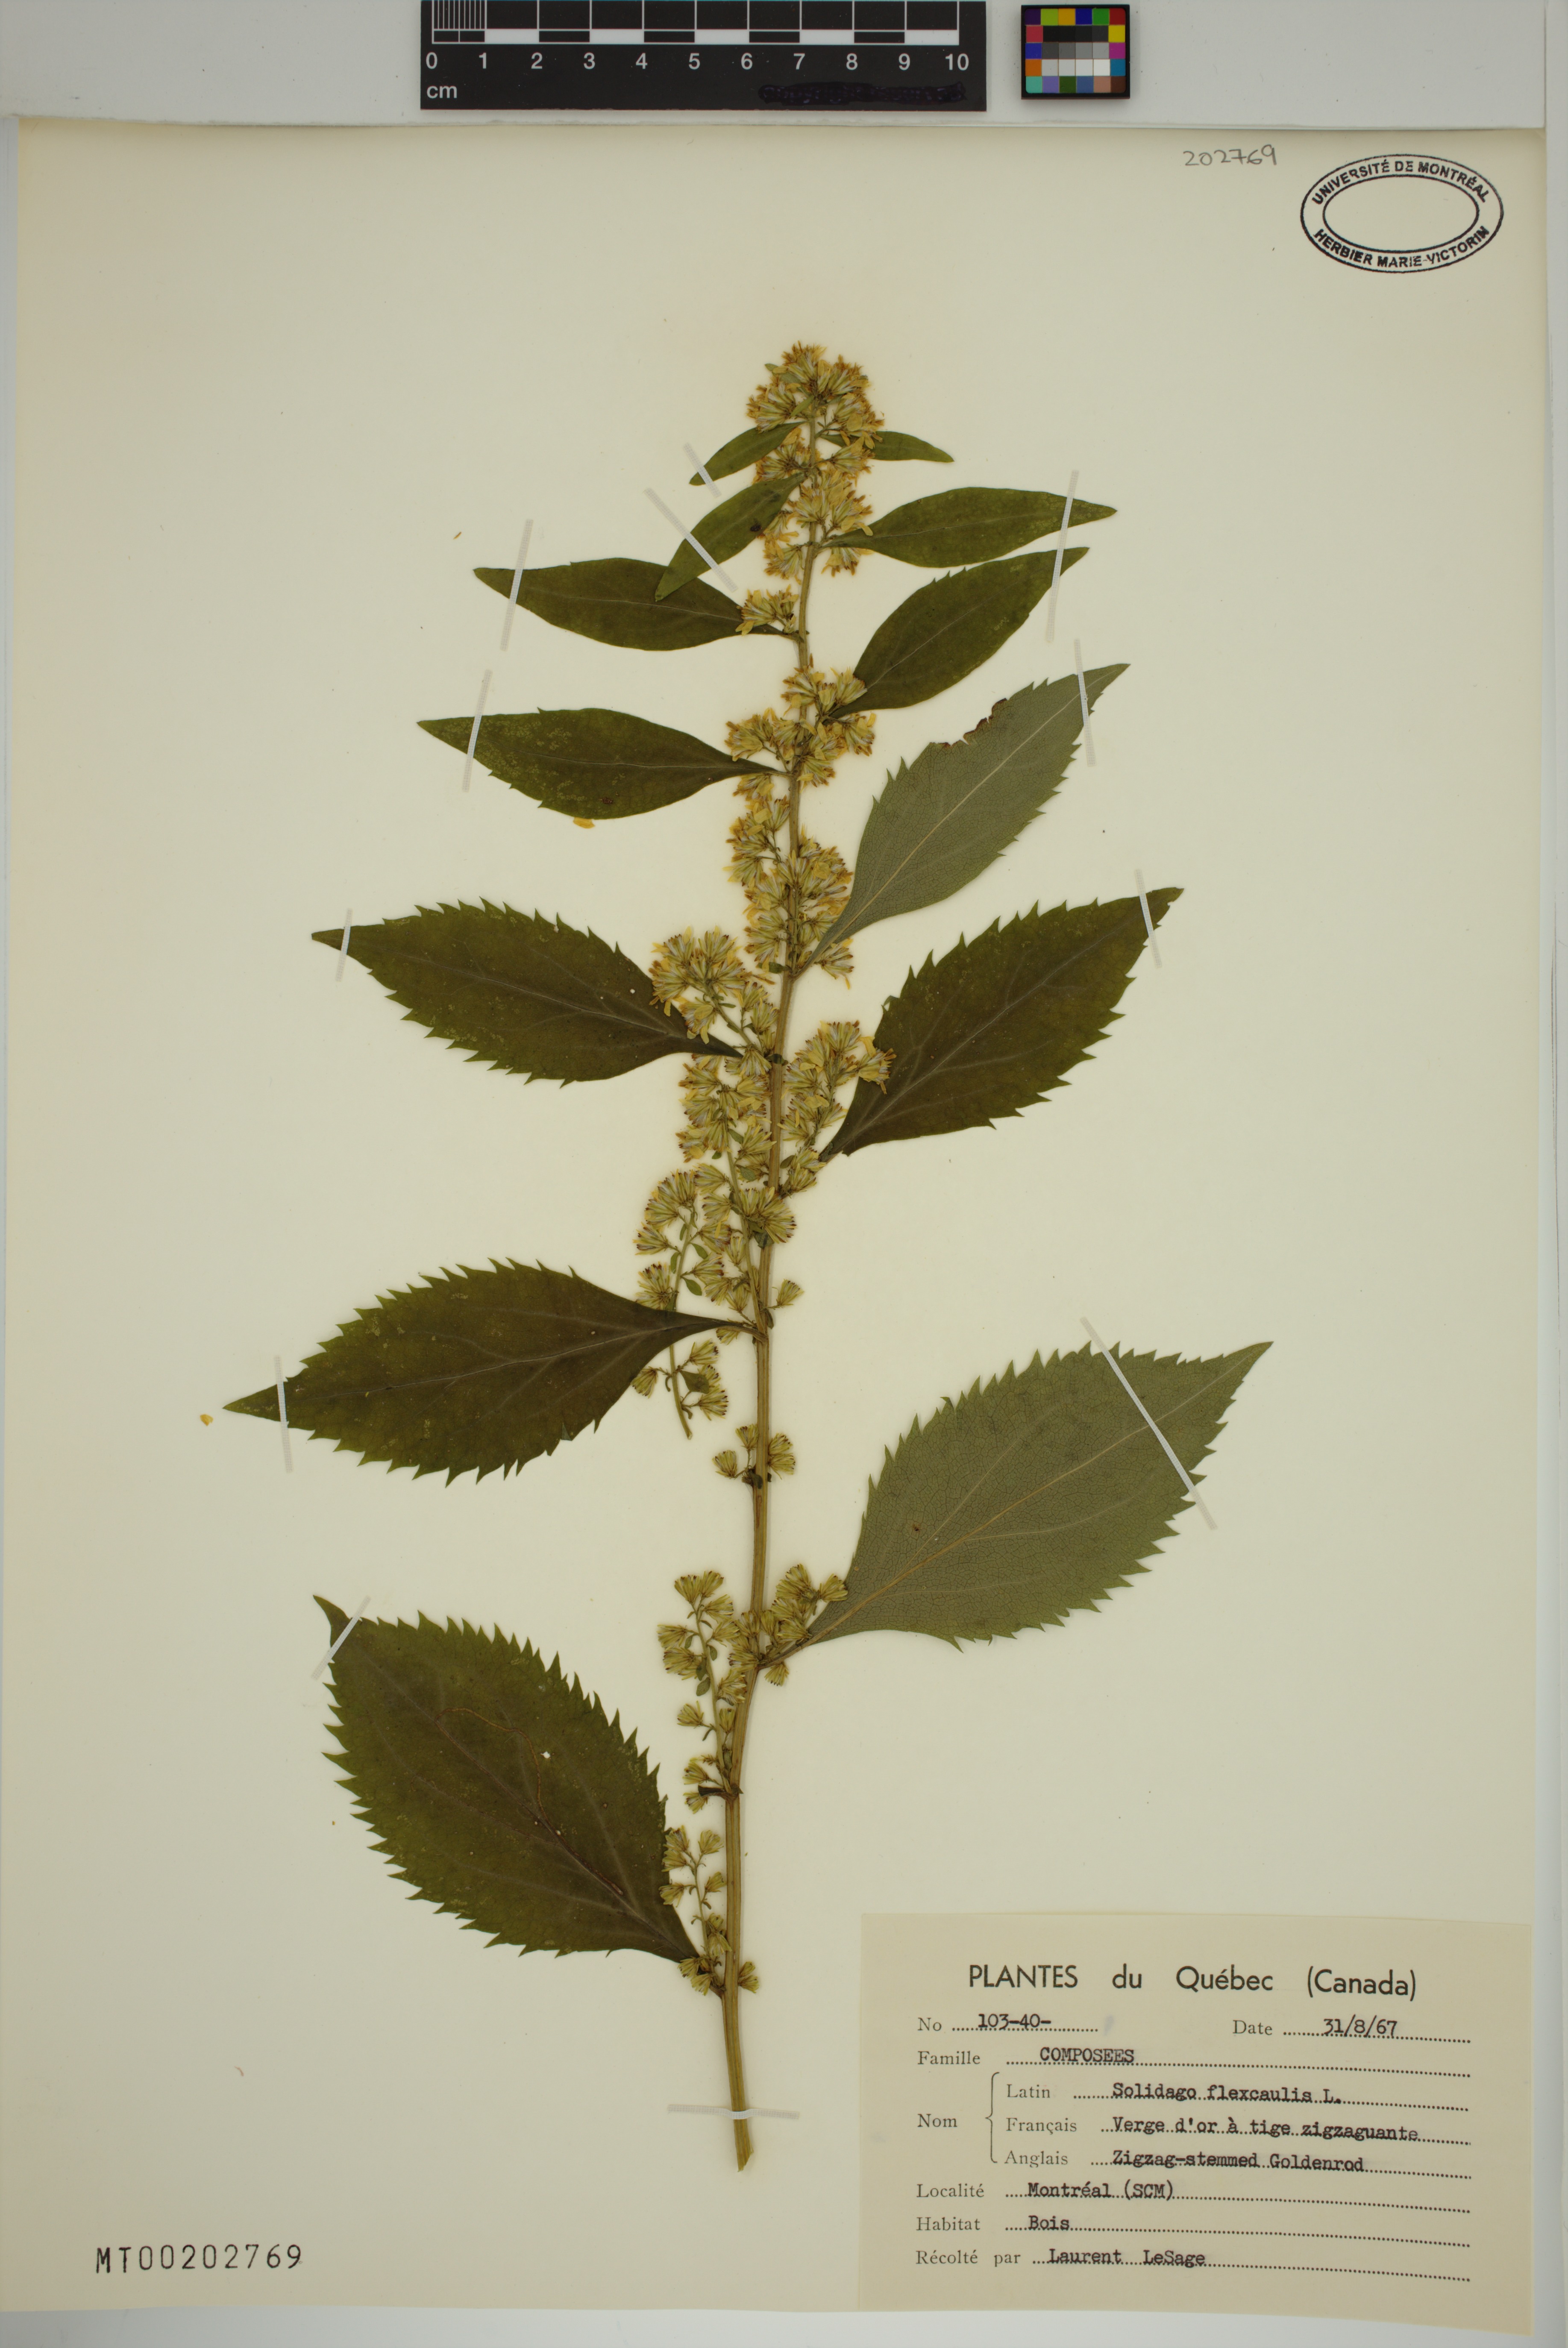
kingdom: Plantae
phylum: Tracheophyta
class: Magnoliopsida
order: Asterales
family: Asteraceae
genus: Solidago
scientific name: Solidago flexicaulis
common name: Zig-zag goldenrod
